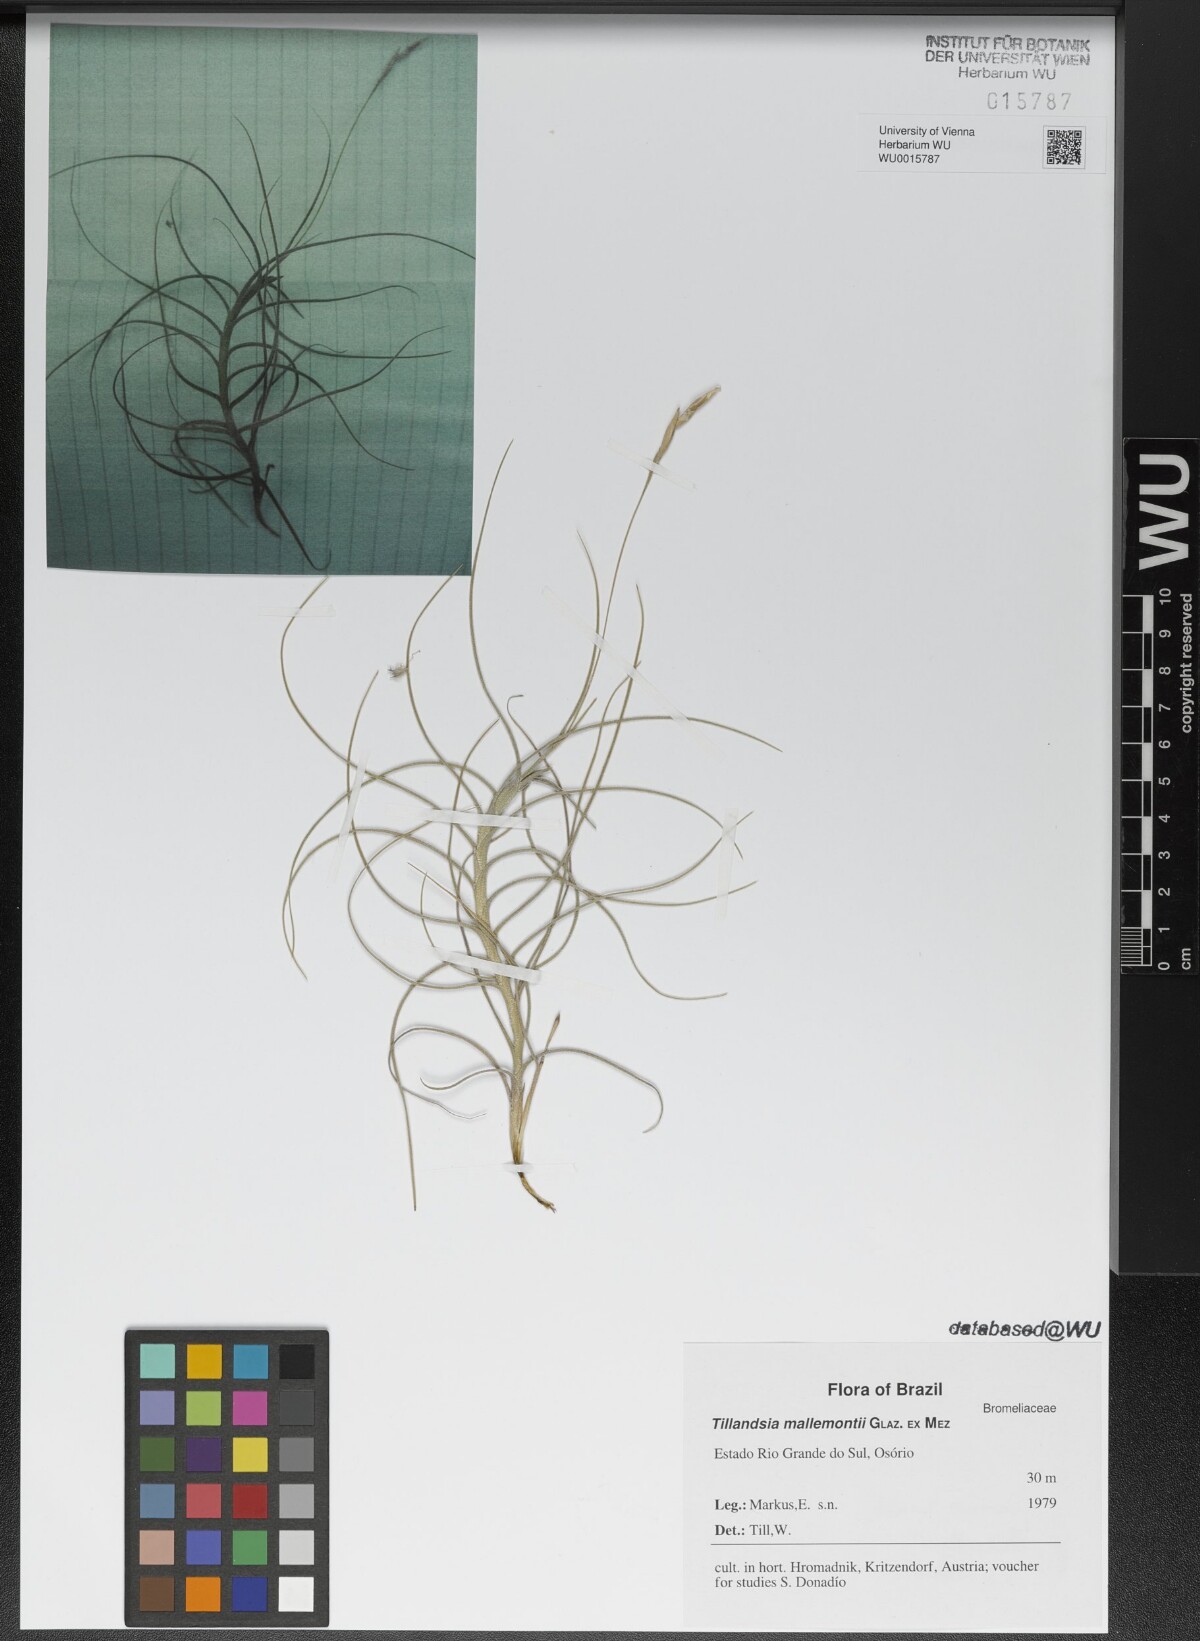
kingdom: Plantae
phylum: Tracheophyta
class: Liliopsida
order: Poales
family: Bromeliaceae
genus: Tillandsia
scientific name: Tillandsia mallemontii
